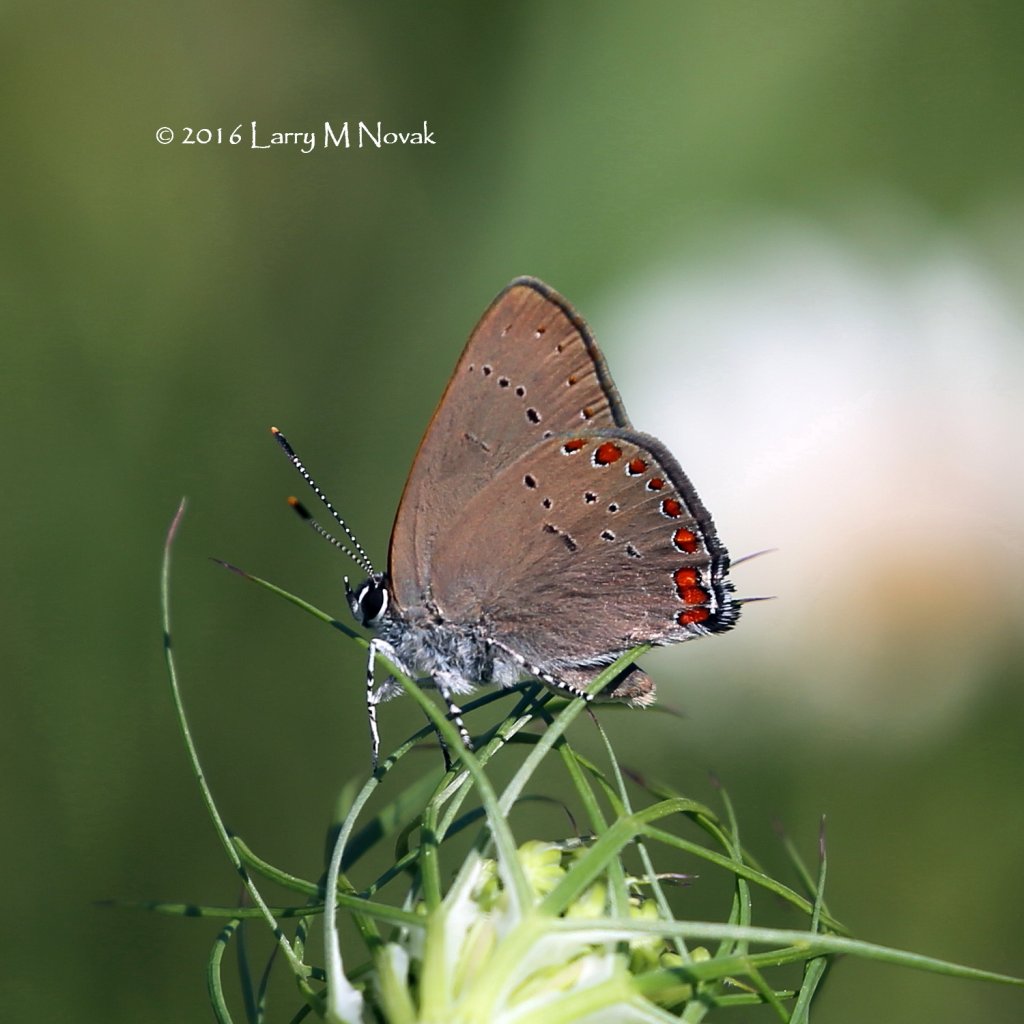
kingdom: Animalia
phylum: Arthropoda
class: Insecta
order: Lepidoptera
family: Lycaenidae
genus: Harkenclenus
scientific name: Harkenclenus titus
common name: Coral Hairstreak
